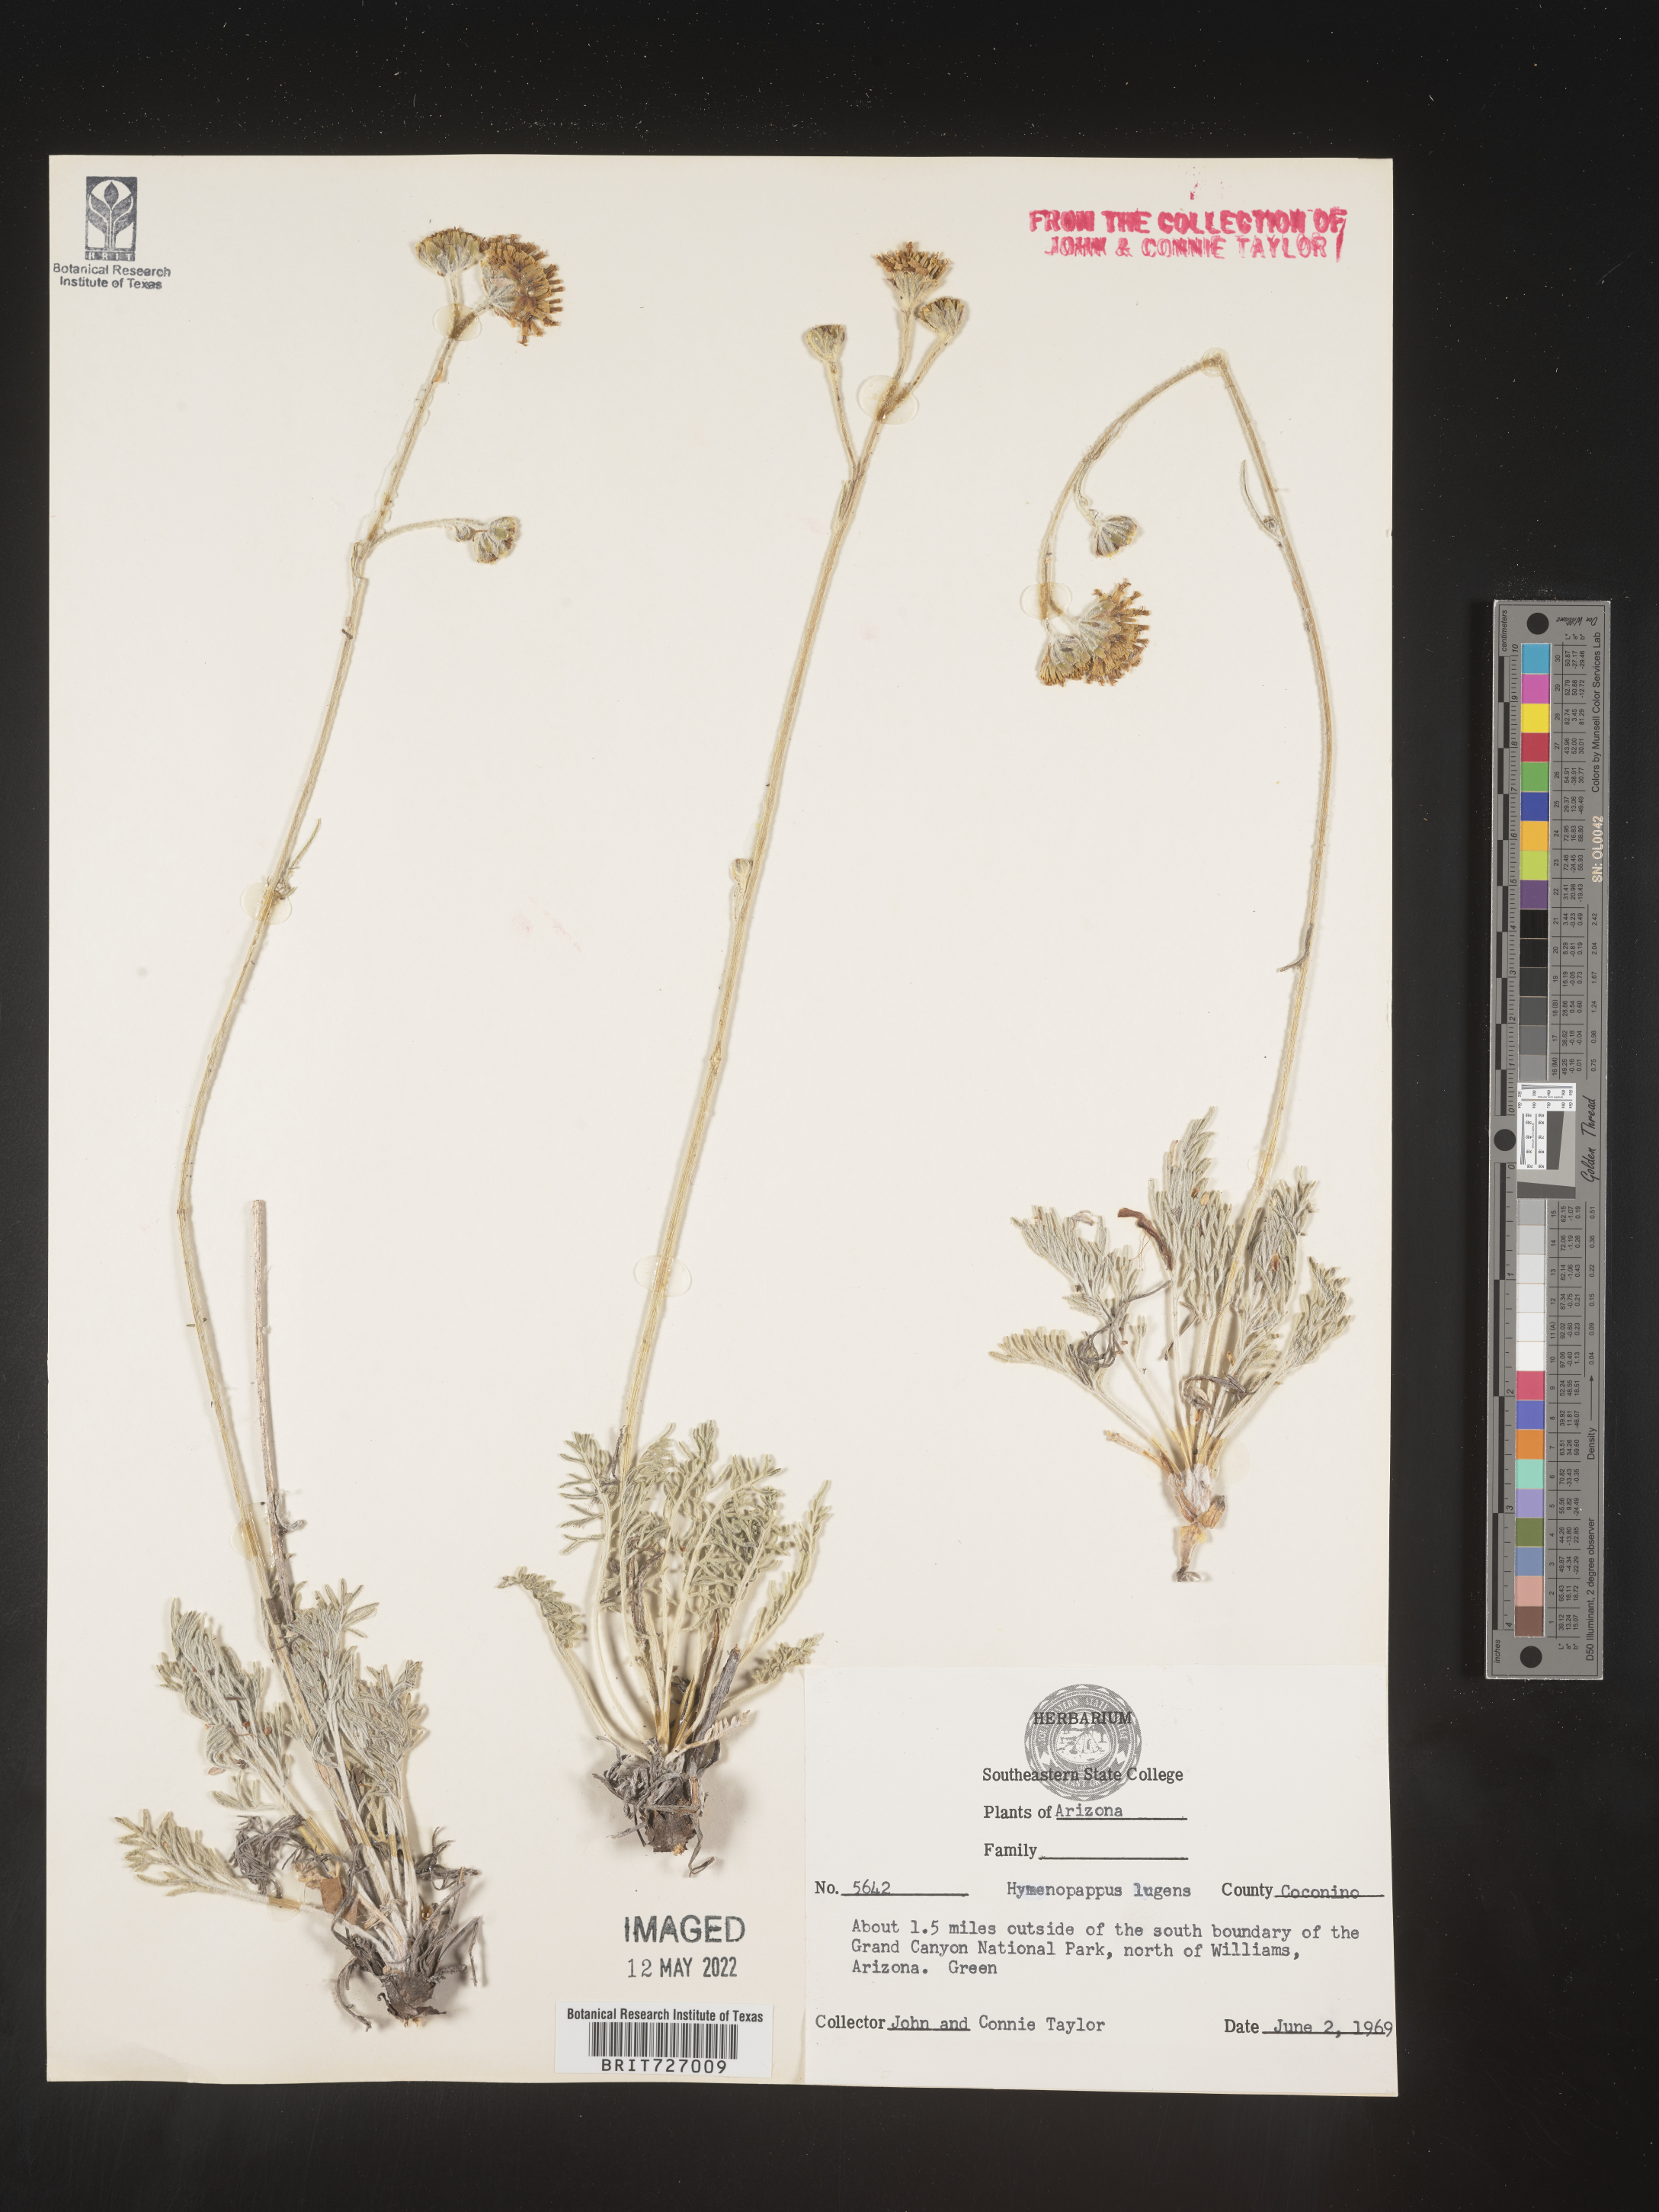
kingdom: Plantae
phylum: Tracheophyta
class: Magnoliopsida
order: Asterales
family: Asteraceae
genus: Hymenopappus
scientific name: Hymenopappus filifolius
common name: Columbia cutleaf
